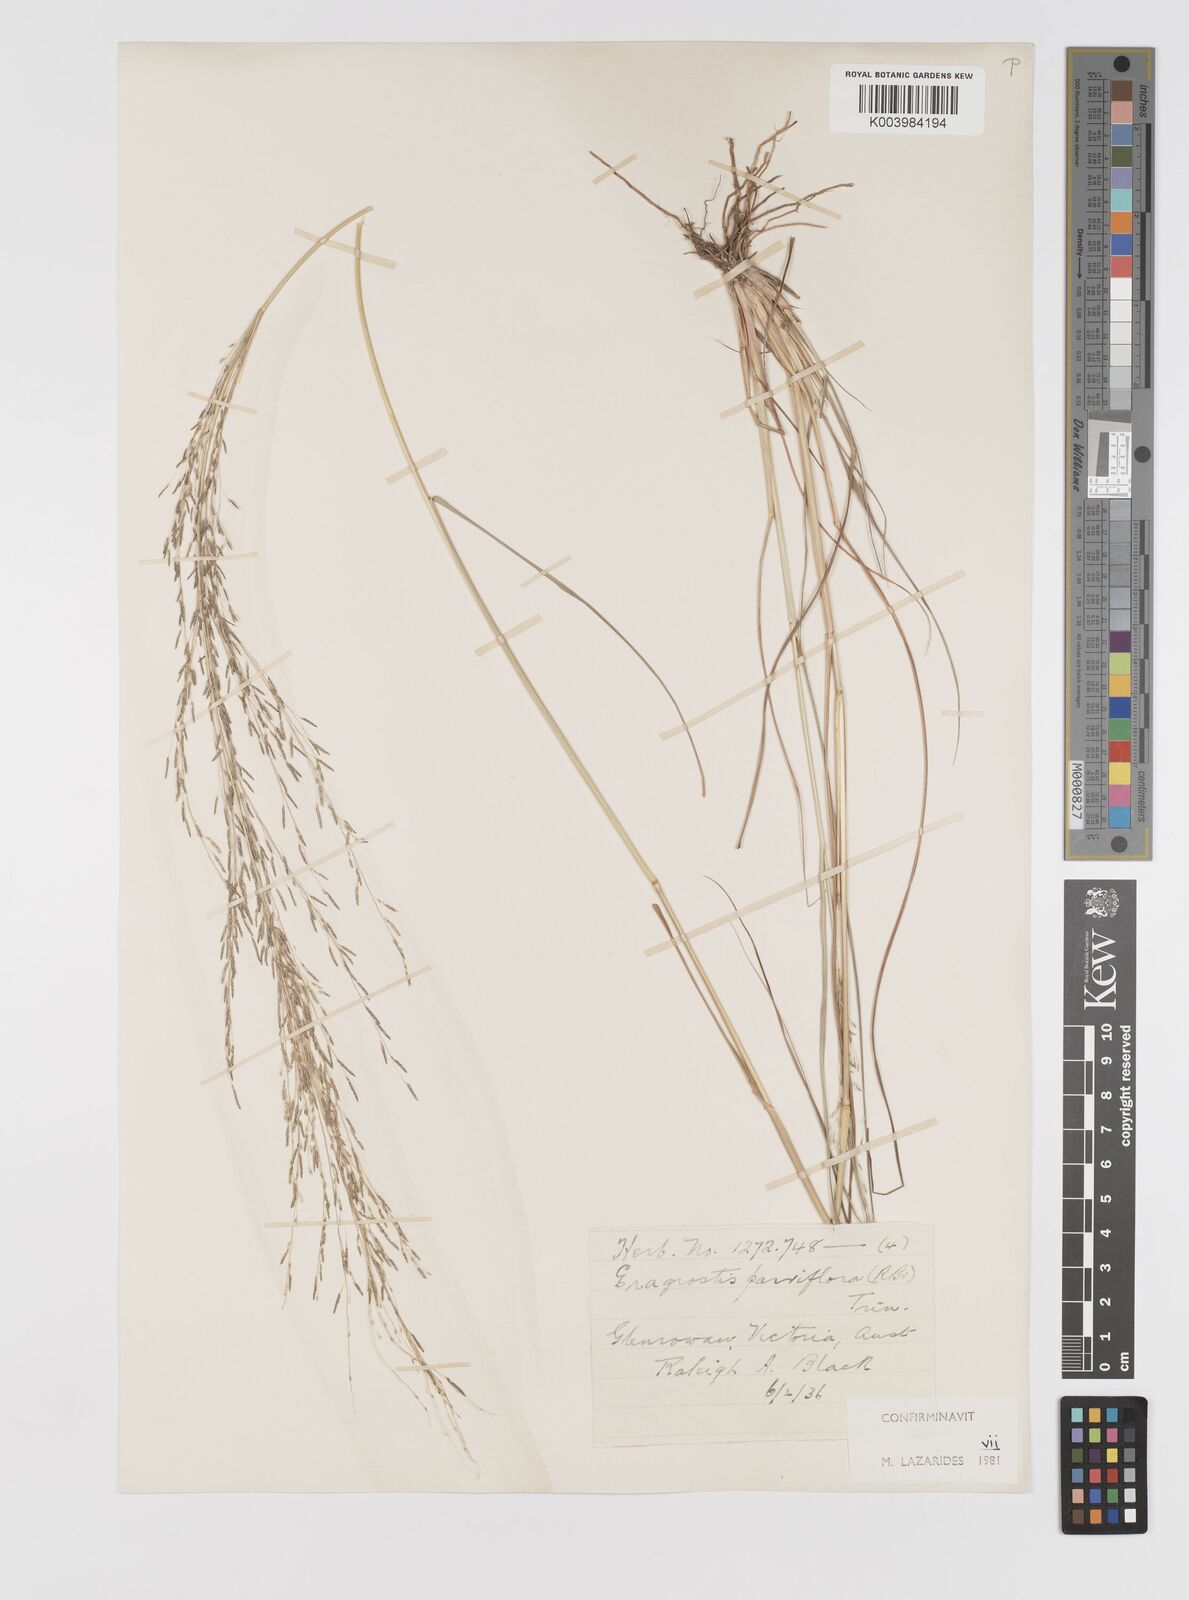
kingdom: Plantae
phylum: Tracheophyta
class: Liliopsida
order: Poales
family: Poaceae
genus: Eragrostis
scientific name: Eragrostis parviflora
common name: Weeping love-grass
